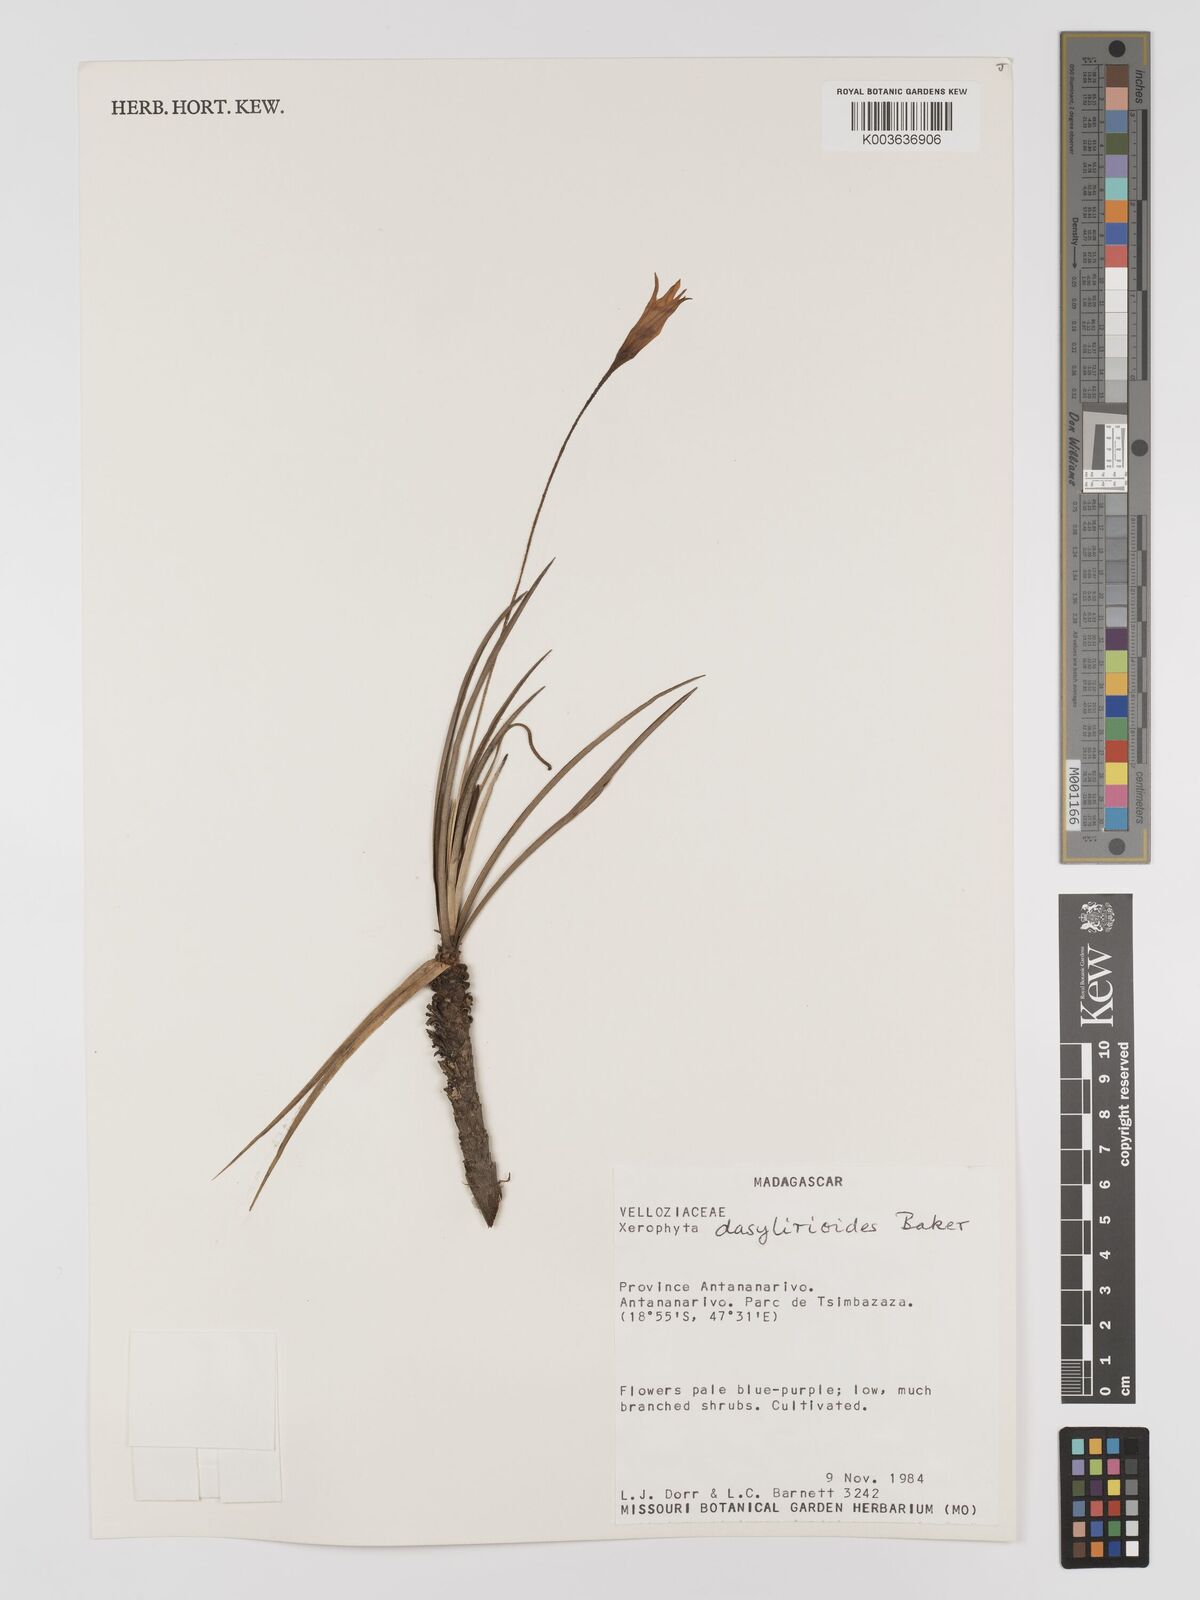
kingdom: Plantae
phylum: Tracheophyta
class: Liliopsida
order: Pandanales
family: Velloziaceae
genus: Xerophyta
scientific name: Xerophyta dasylirioides
